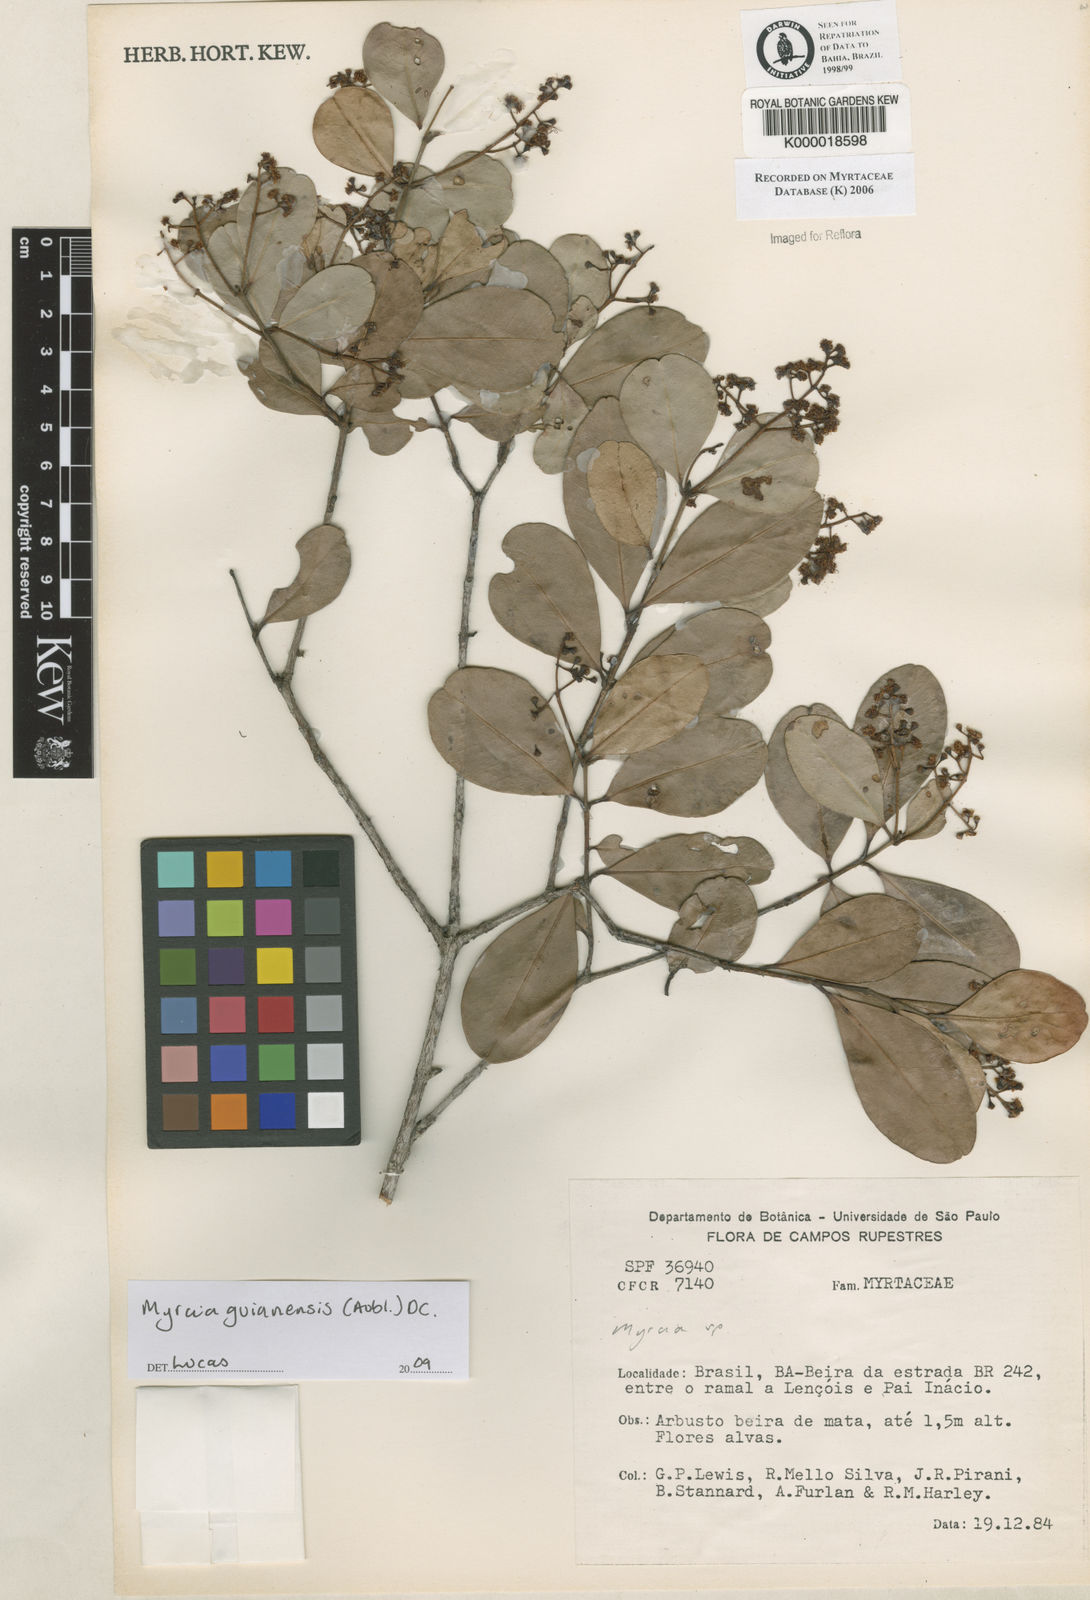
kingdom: Plantae
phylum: Tracheophyta
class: Magnoliopsida
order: Myrtales
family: Myrtaceae
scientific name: Myrtaceae
